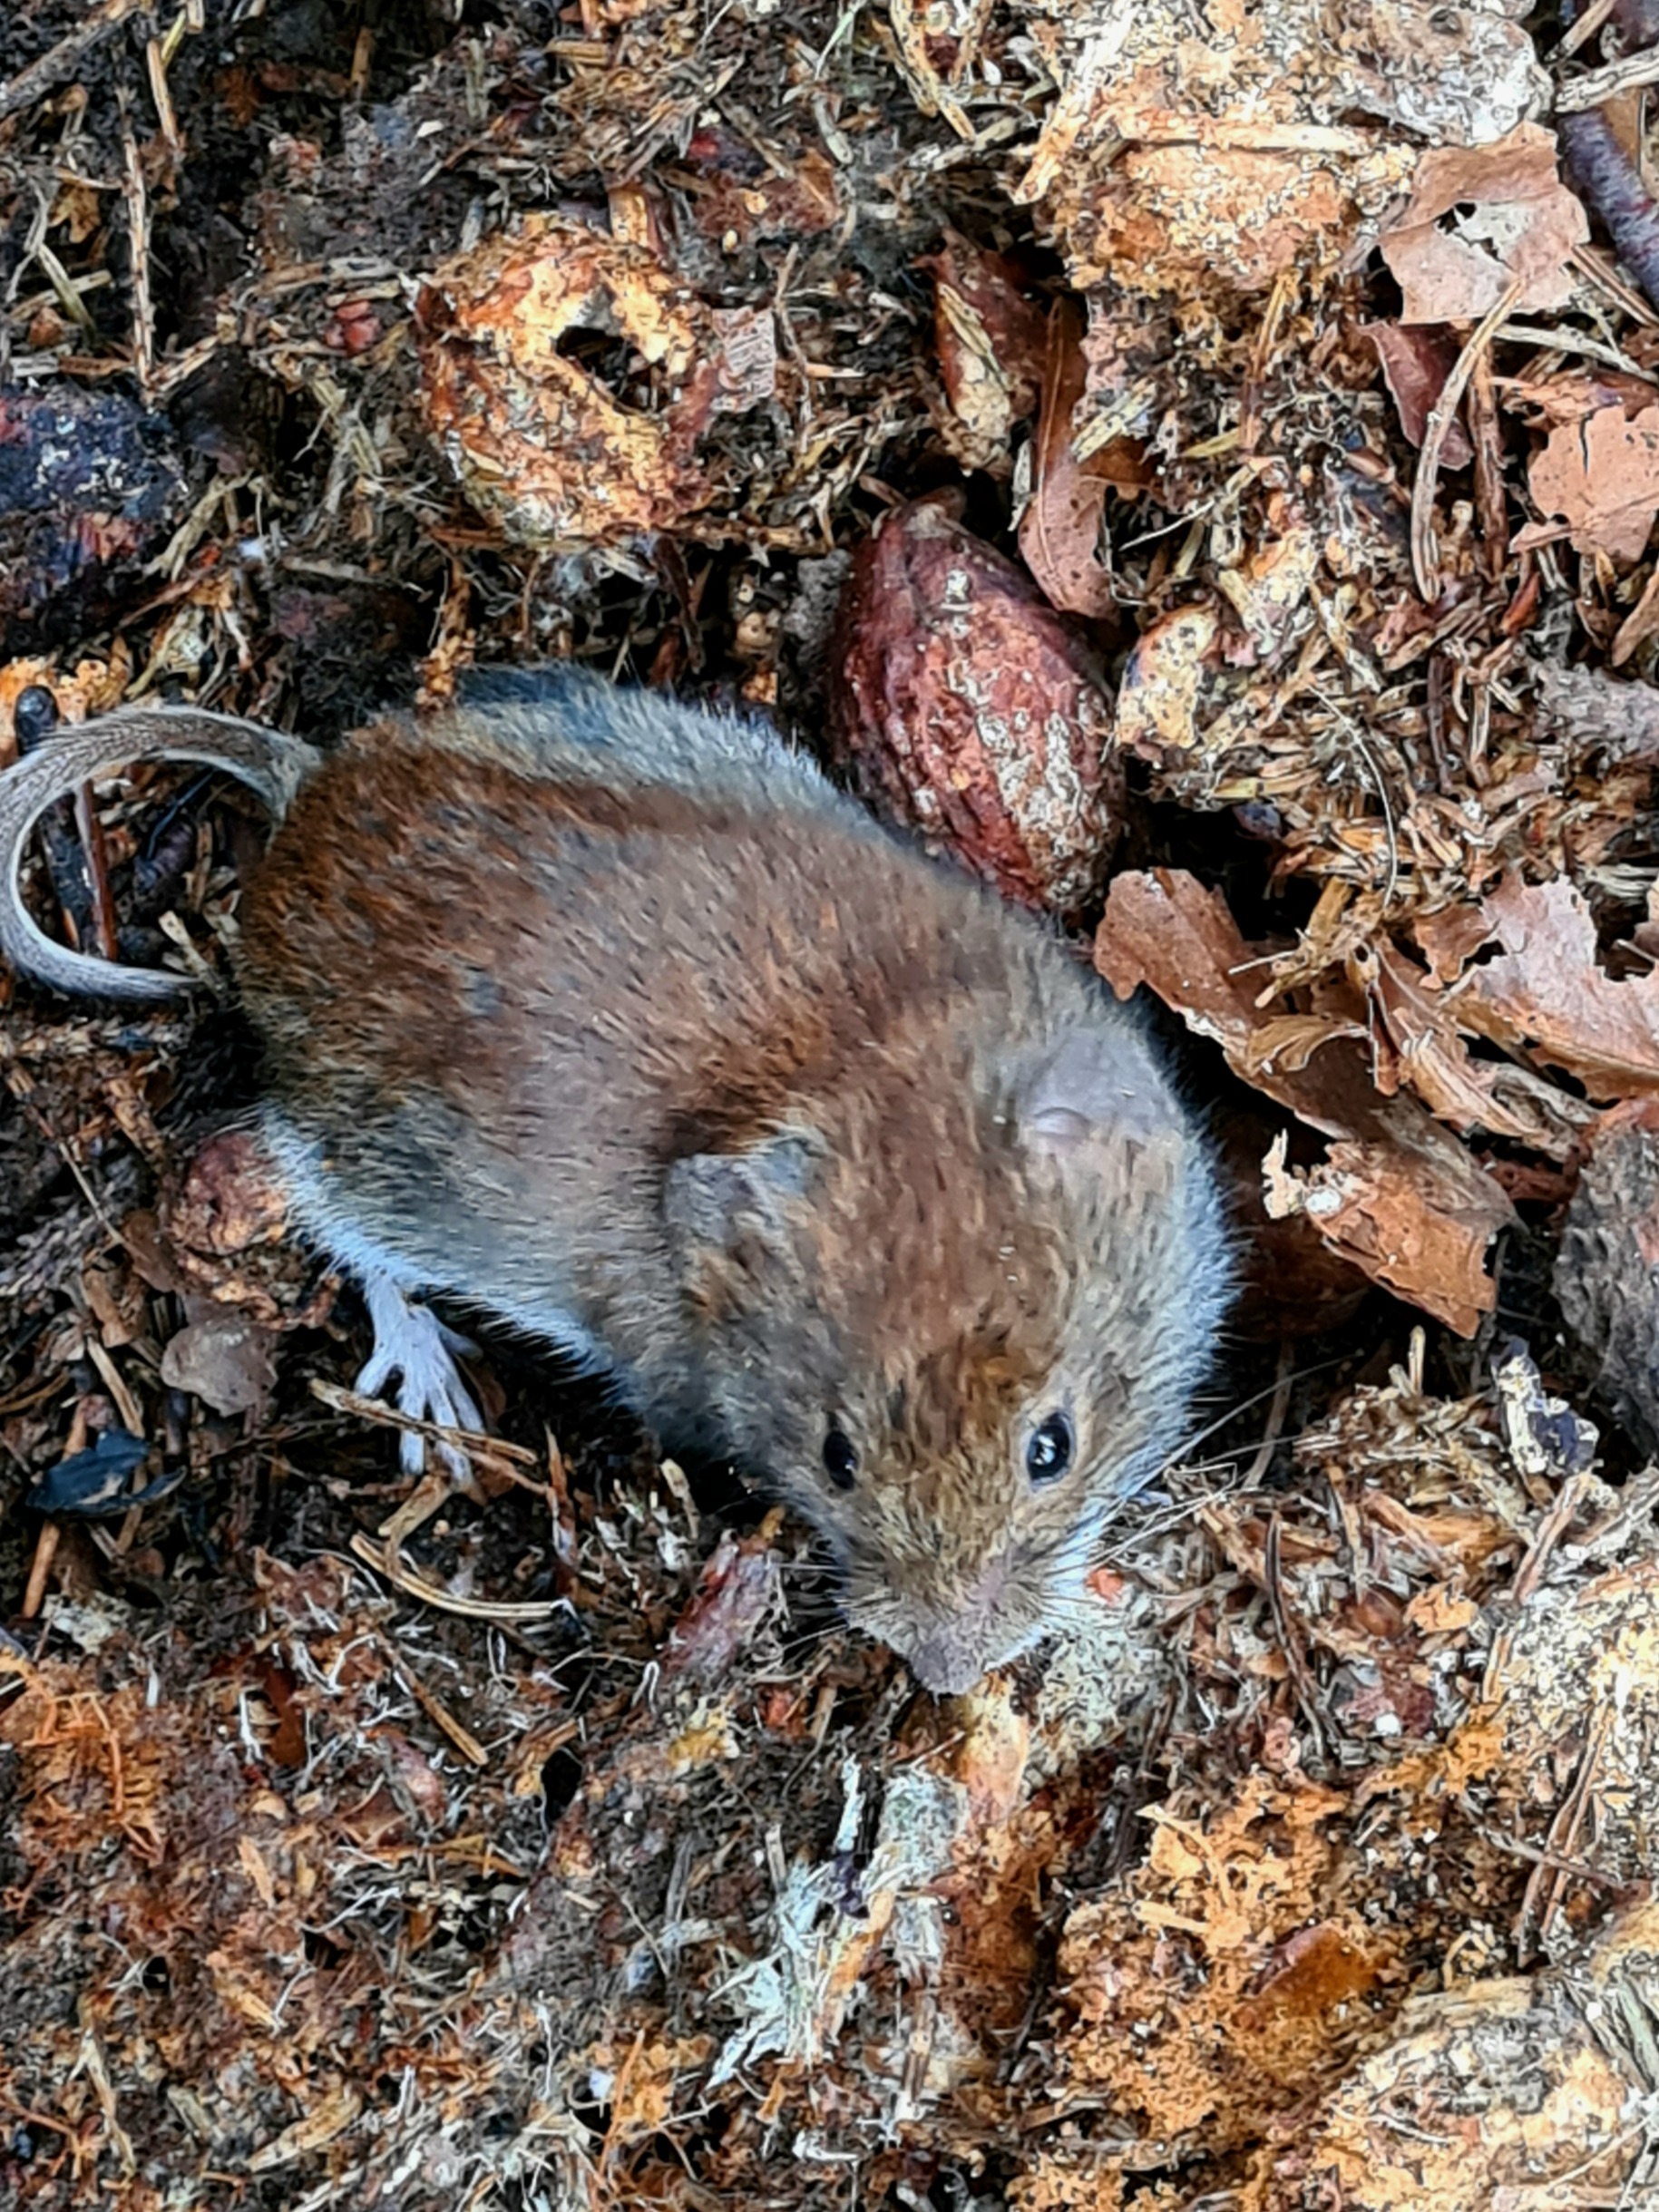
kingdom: Animalia
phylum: Chordata
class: Mammalia
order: Rodentia
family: Cricetidae
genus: Myodes
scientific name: Myodes glareolus
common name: Rødmus
